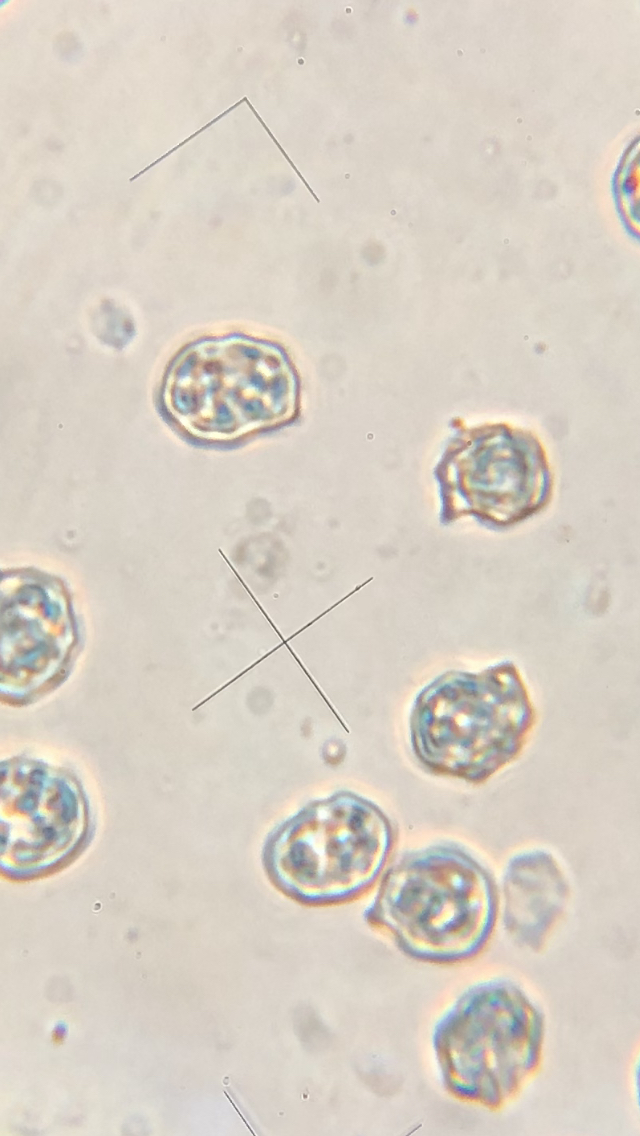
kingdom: Fungi
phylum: Basidiomycota
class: Agaricomycetes
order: Agaricales
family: Entolomataceae
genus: Entoloma
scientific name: Entoloma clypeatum
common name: flammet rødblad
